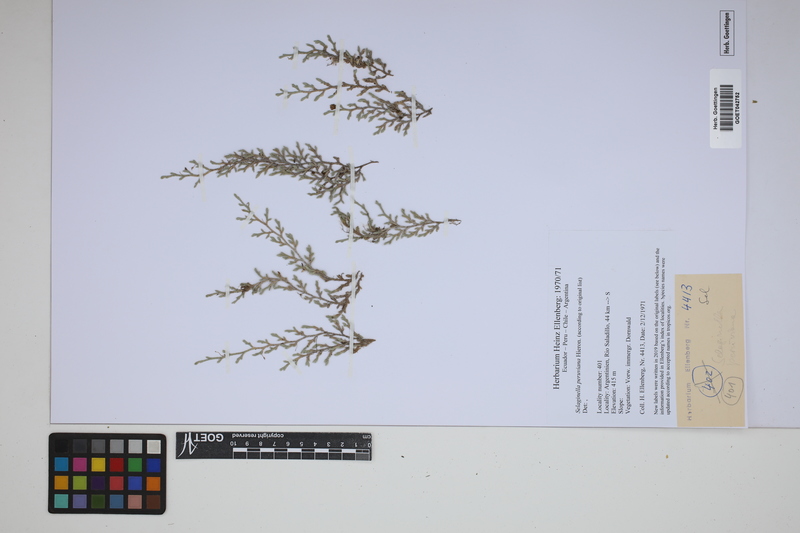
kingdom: Plantae
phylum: Tracheophyta
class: Lycopodiopsida
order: Selaginellales
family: Selaginellaceae
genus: Selaginella
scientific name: Selaginella peruviana
